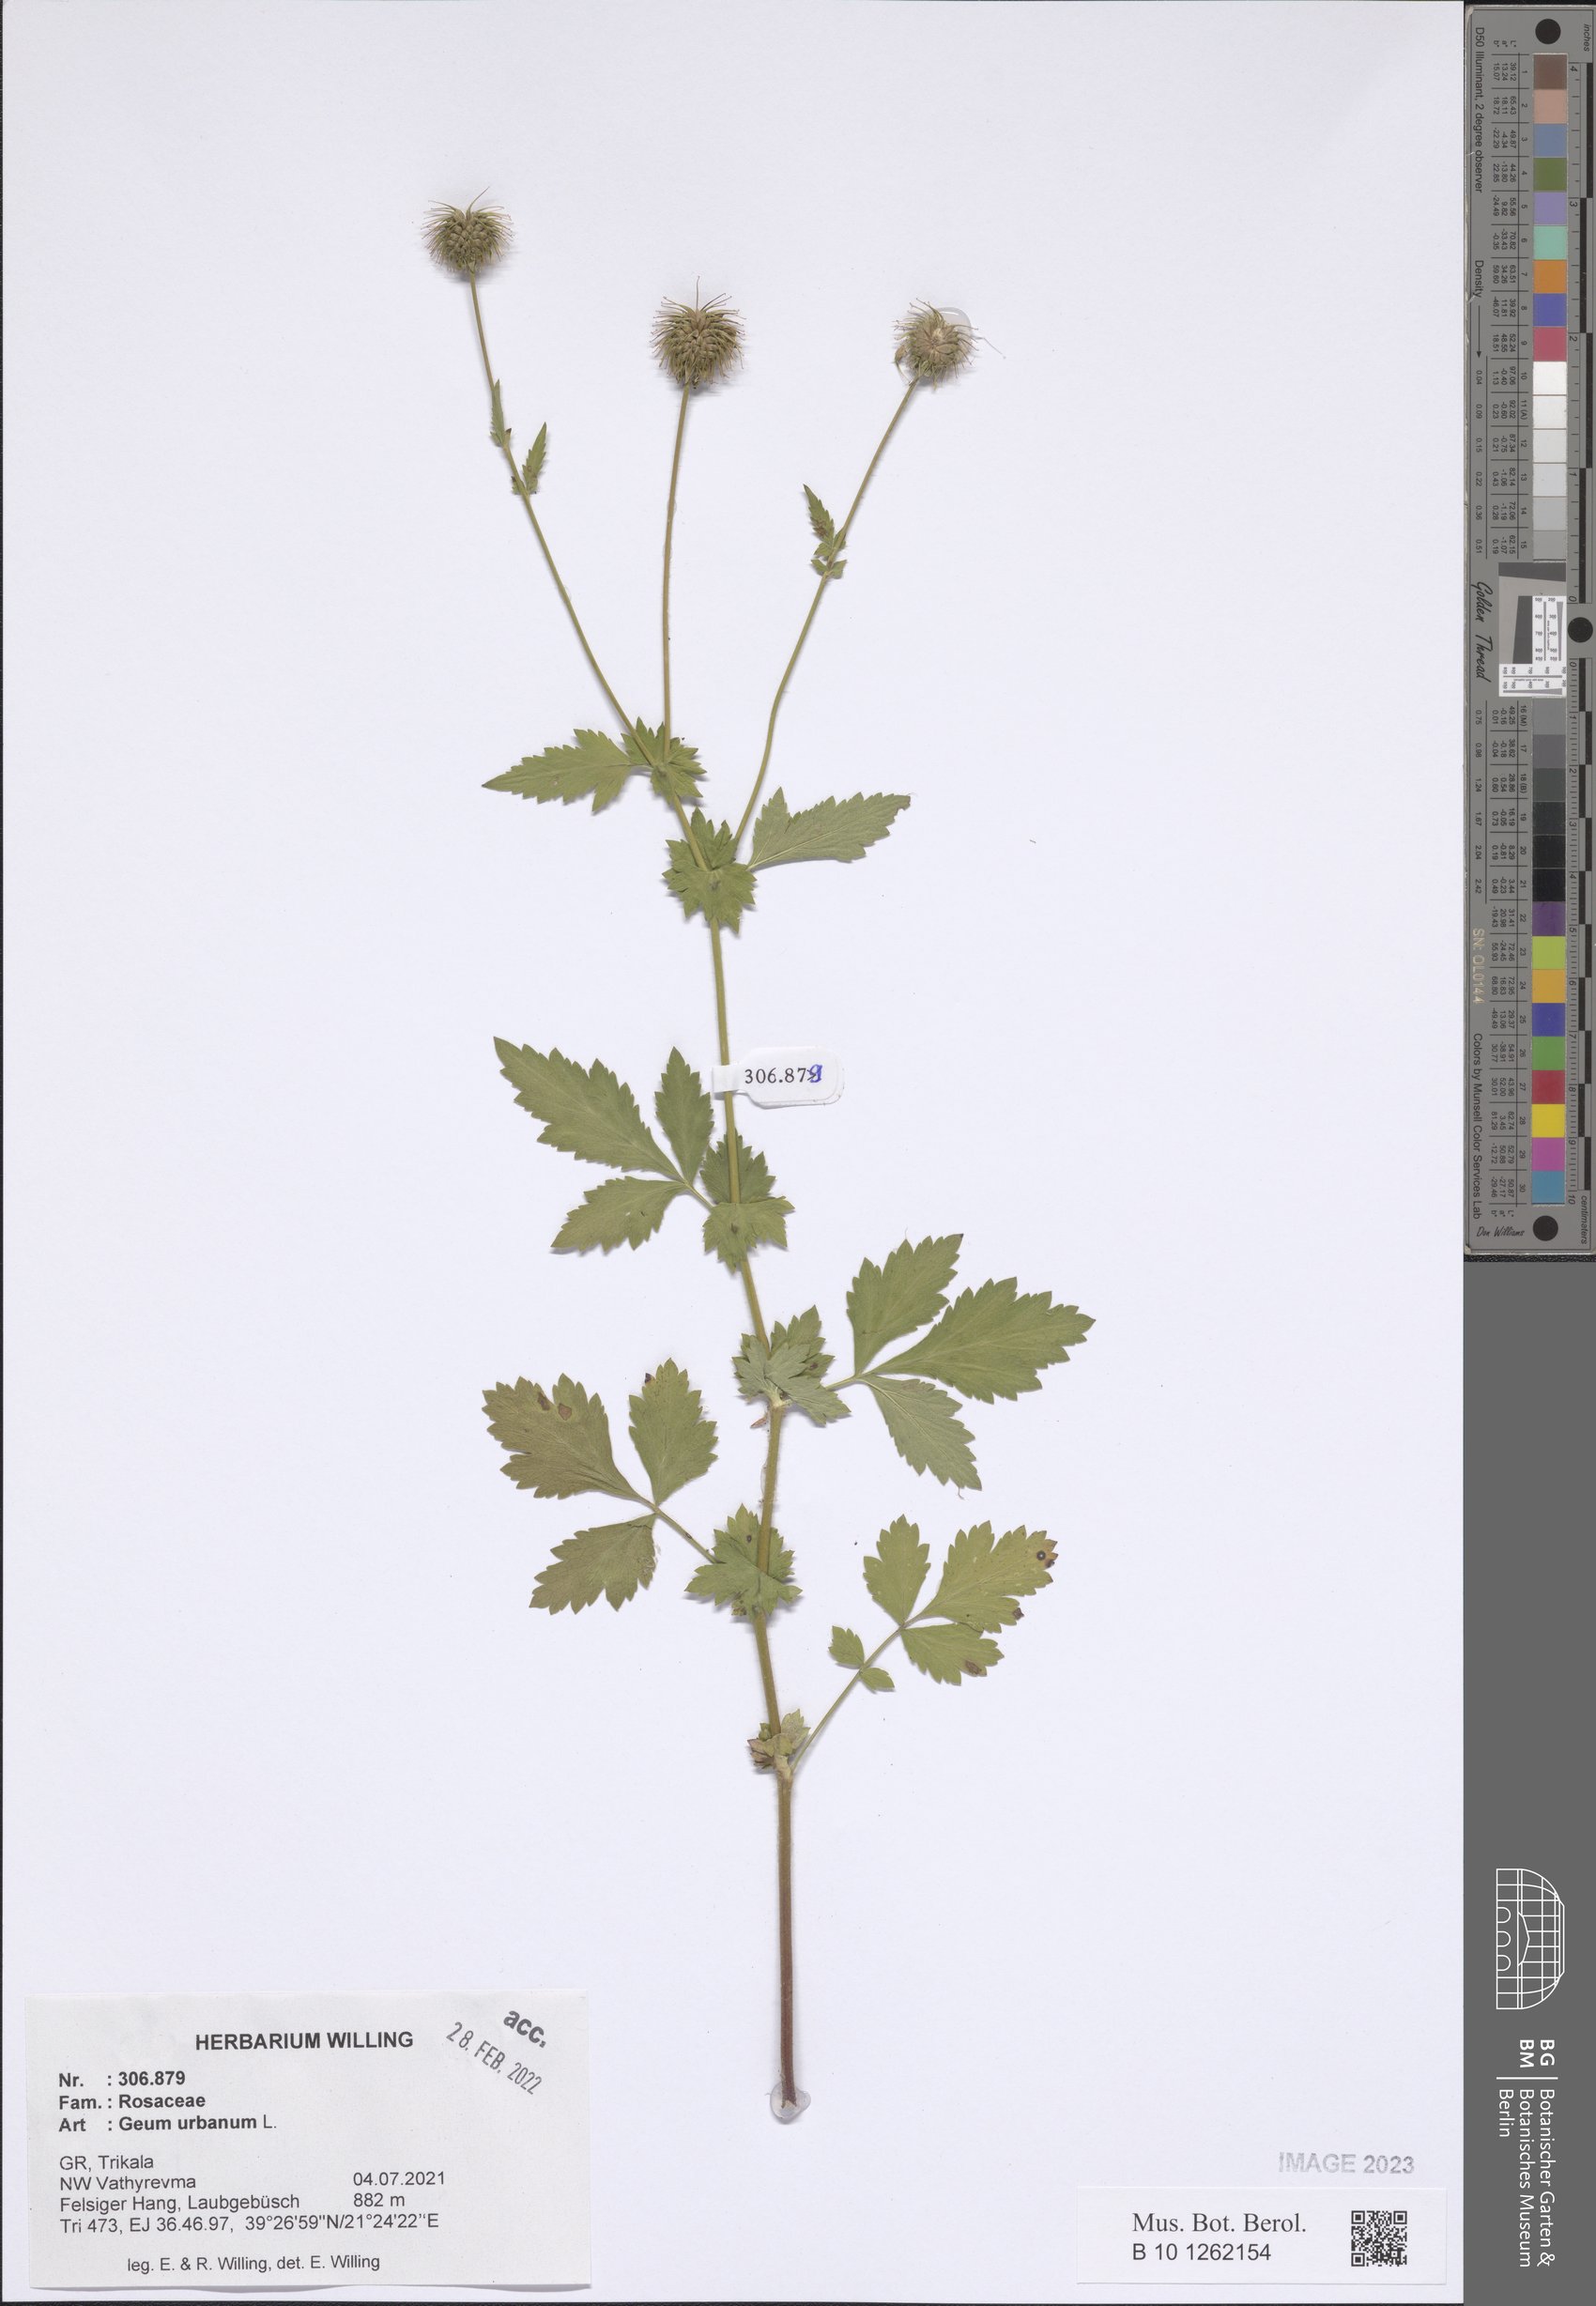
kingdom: Plantae
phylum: Tracheophyta
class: Magnoliopsida
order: Rosales
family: Rosaceae
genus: Geum
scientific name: Geum urbanum
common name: Wood avens
